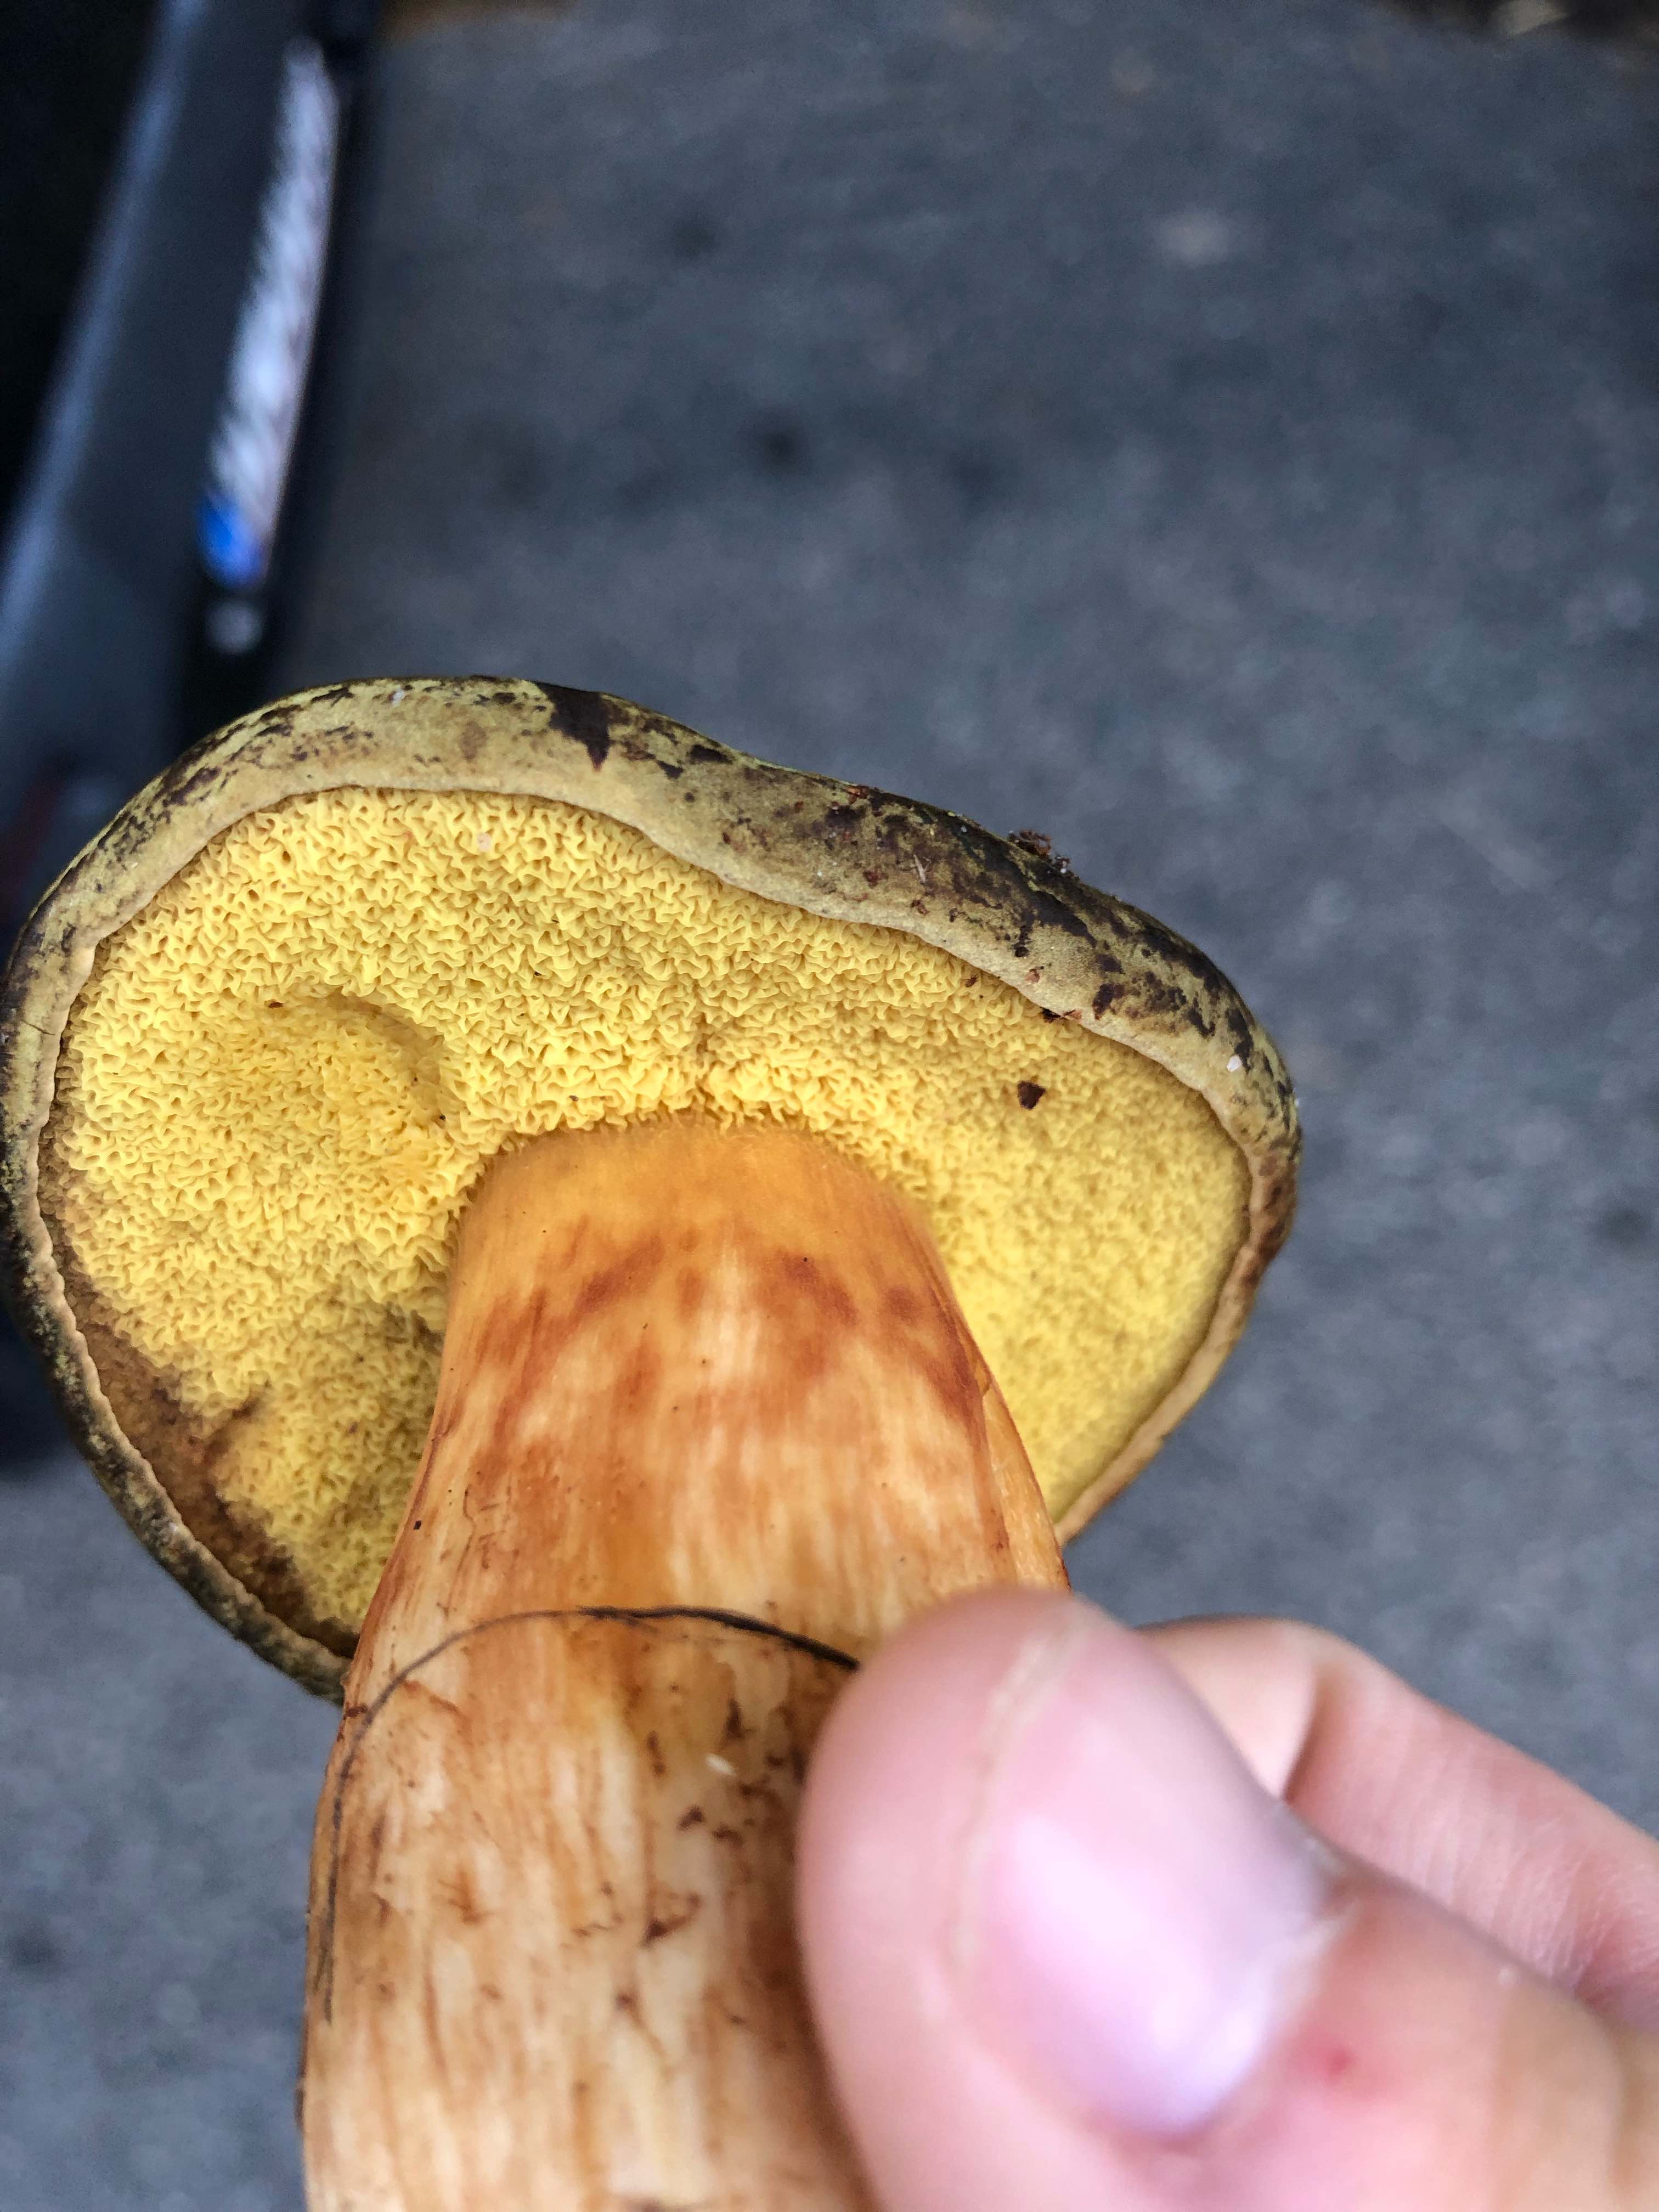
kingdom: Fungi
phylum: Basidiomycota
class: Agaricomycetes
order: Boletales
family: Boletaceae
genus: Imleria
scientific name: Imleria badia
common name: brunstokket rørhat
